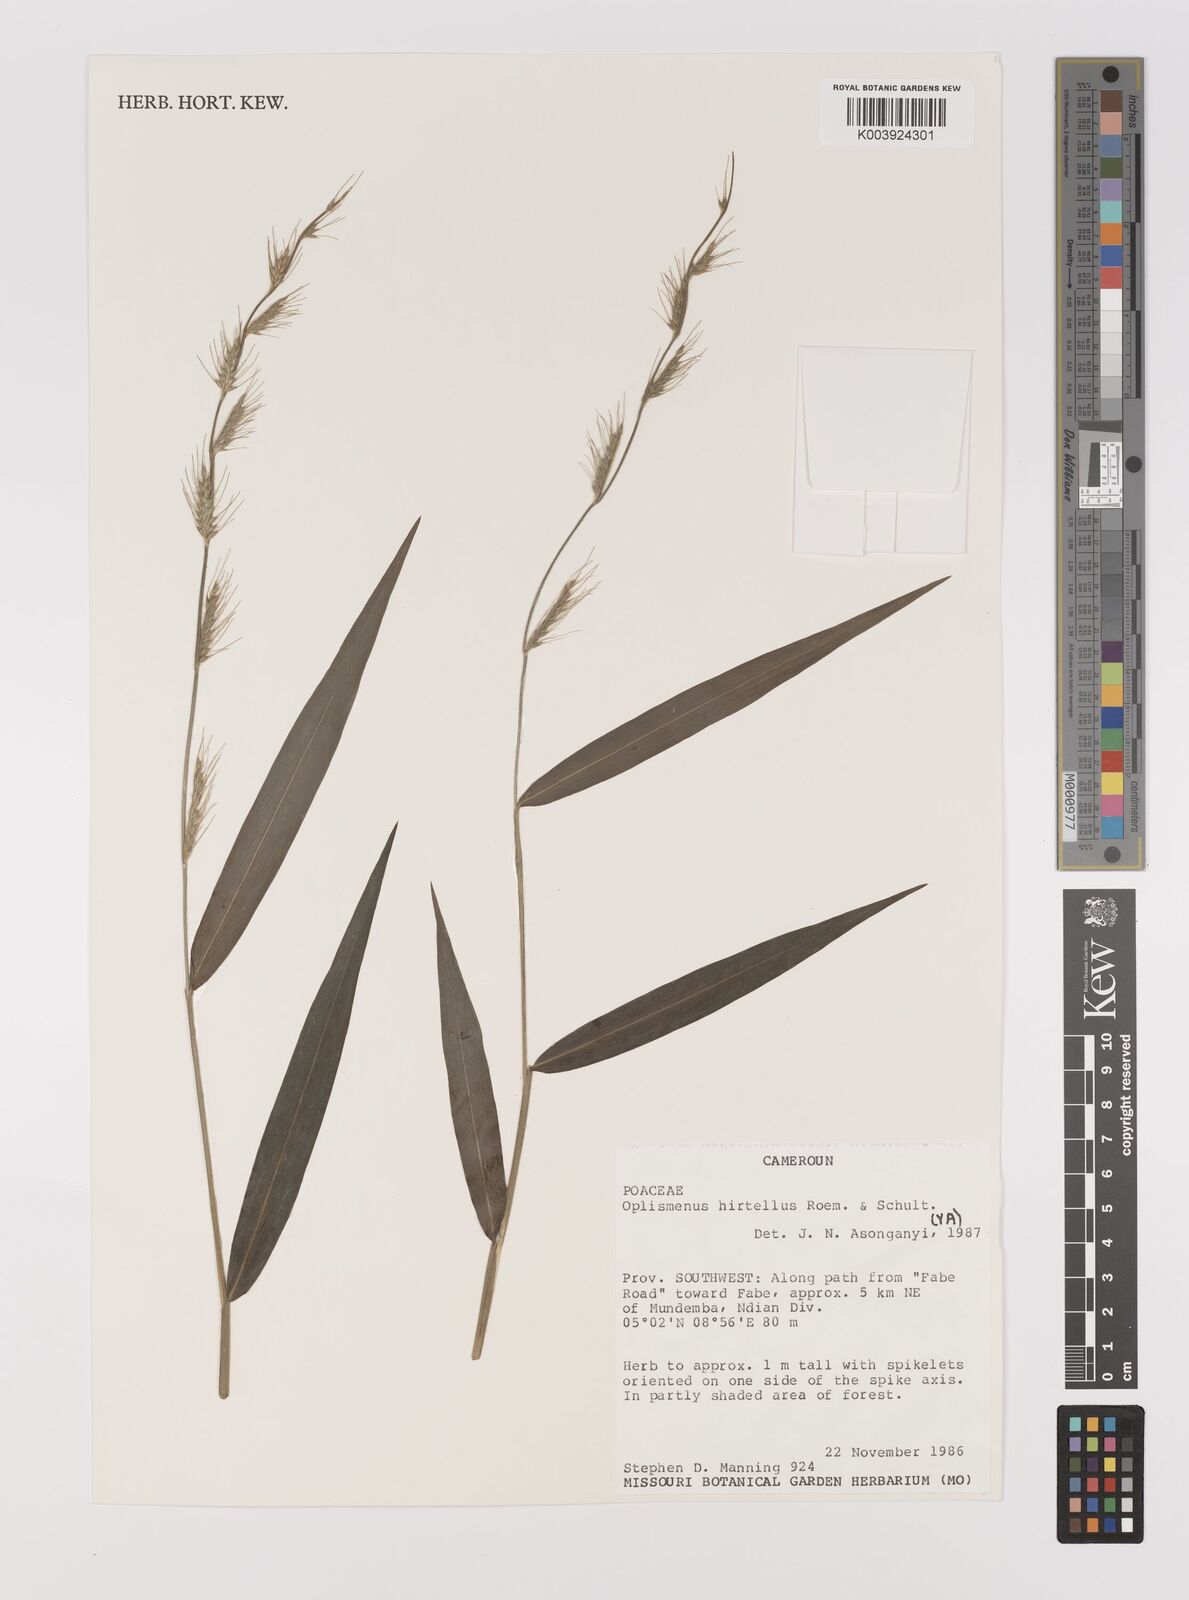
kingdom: Plantae
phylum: Tracheophyta
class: Liliopsida
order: Poales
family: Poaceae
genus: Oplismenus
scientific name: Oplismenus hirtellus
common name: Basketgrass
